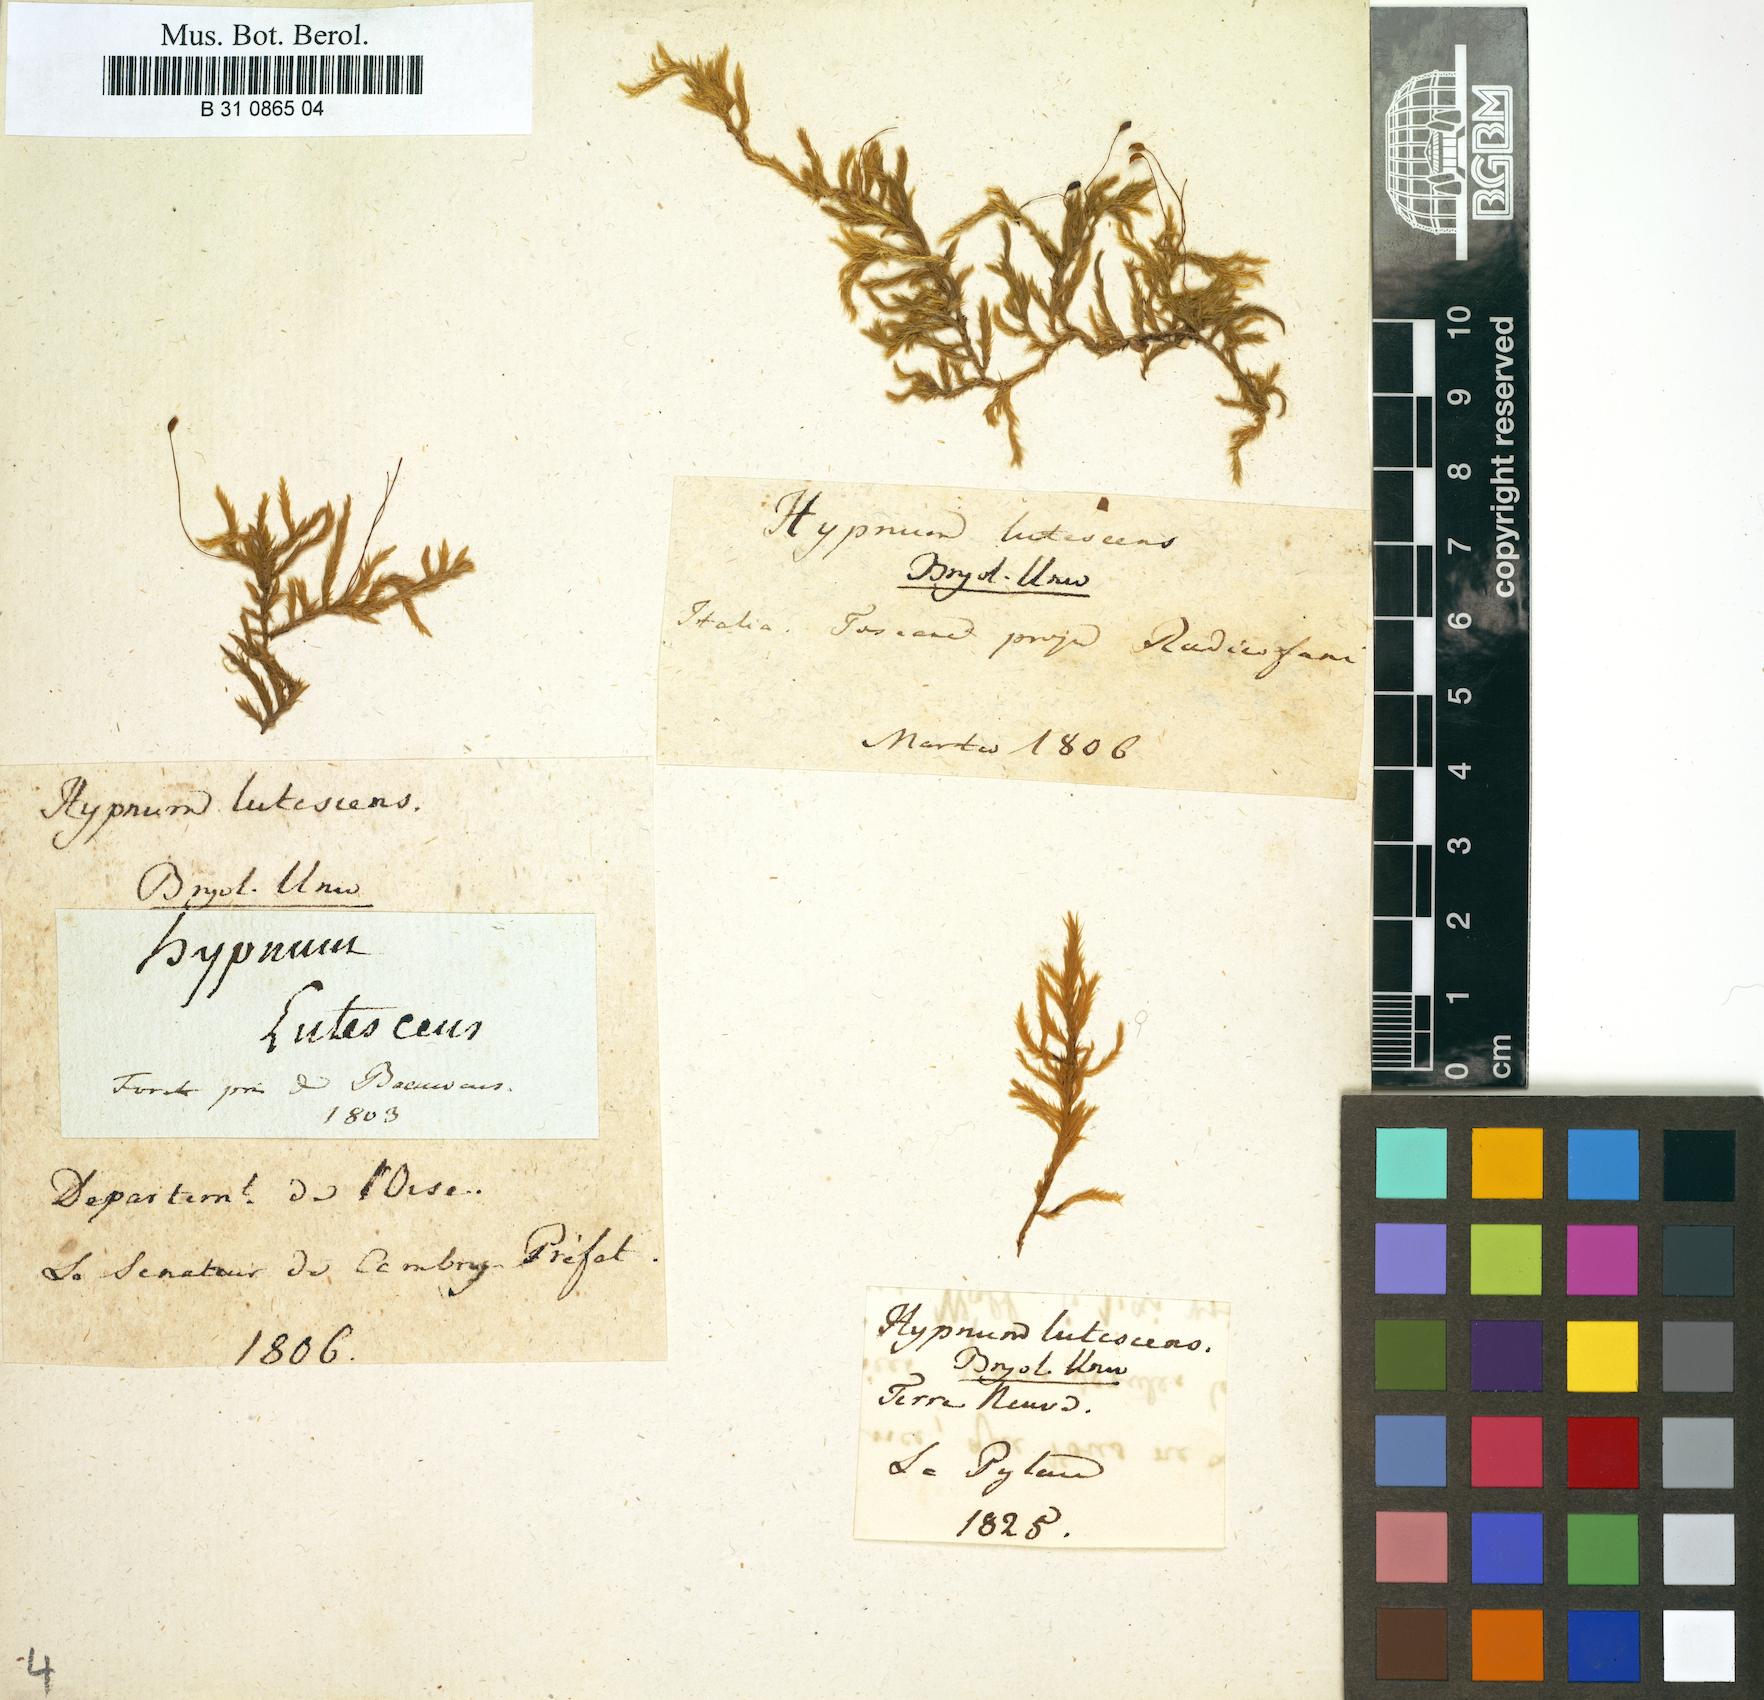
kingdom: Plantae
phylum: Bryophyta
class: Bryopsida
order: Hypnales
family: Brachytheciaceae
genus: Homalothecium
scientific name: Homalothecium lutescens
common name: Yellow feather-moss
